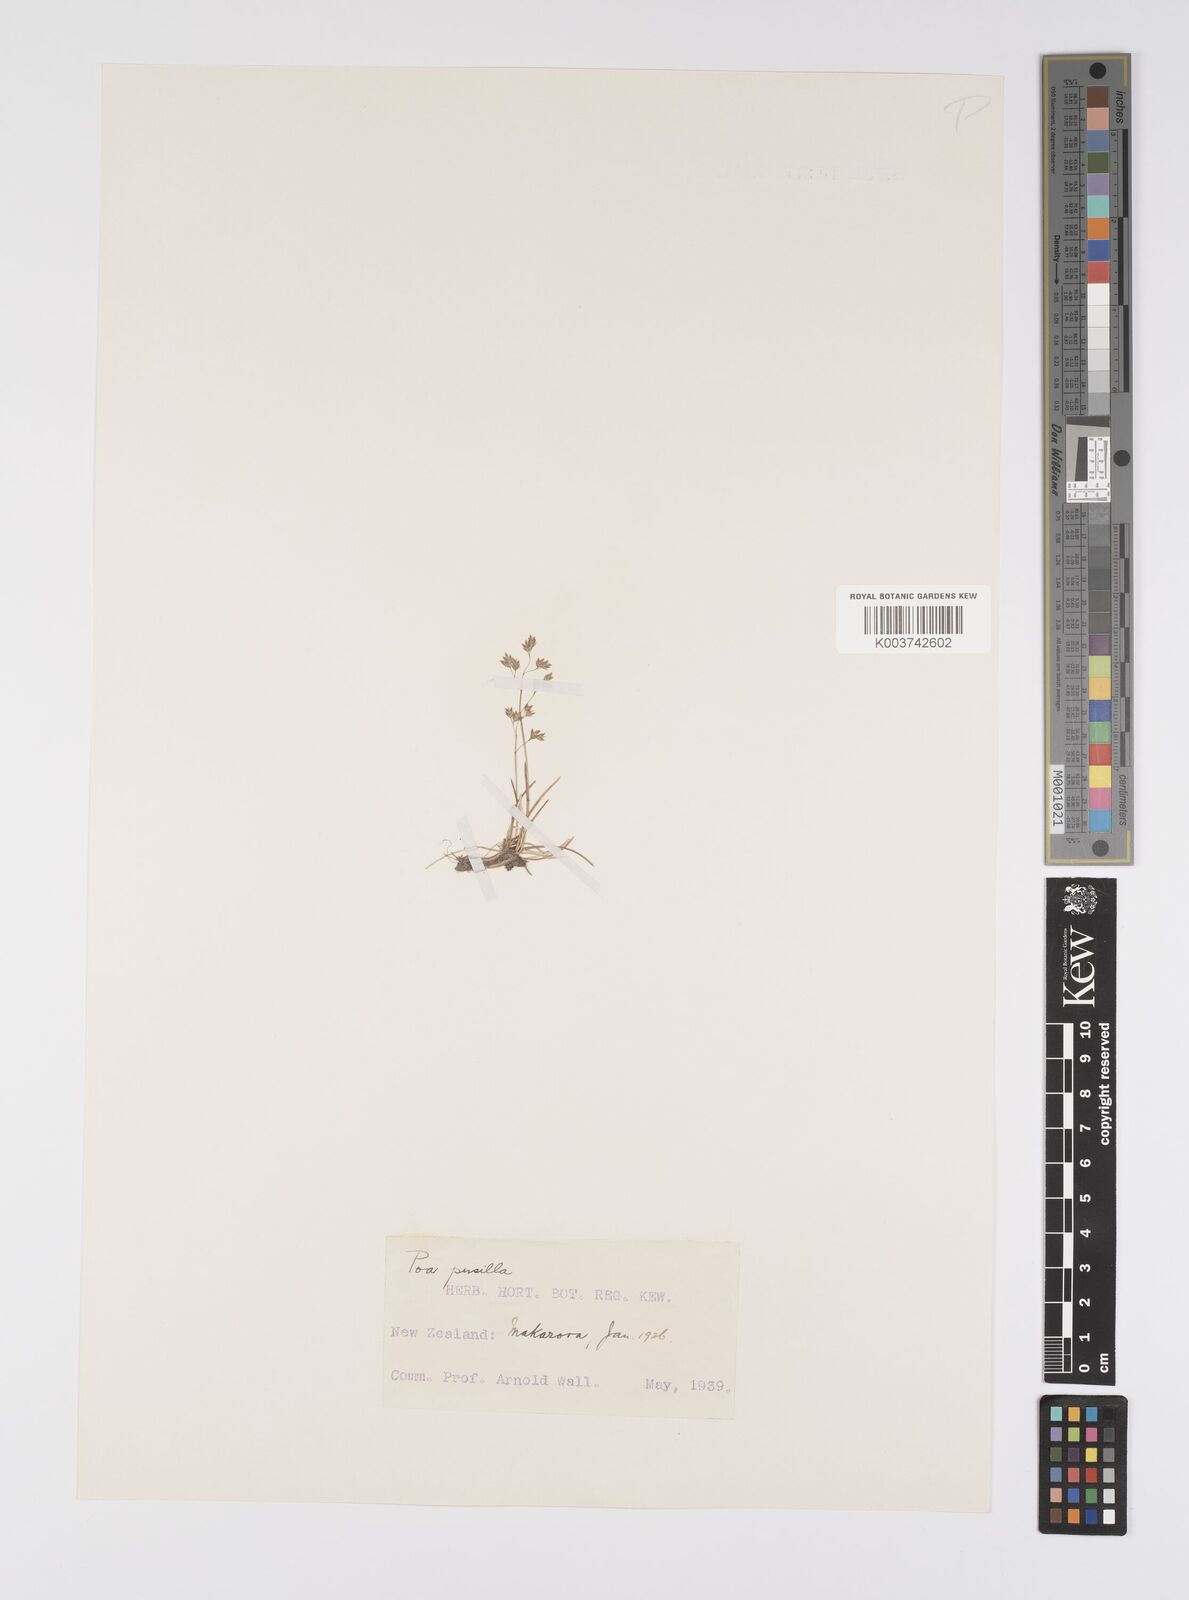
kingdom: Plantae
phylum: Tracheophyta
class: Liliopsida
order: Poales
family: Poaceae
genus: Poa
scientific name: Poa anceps
